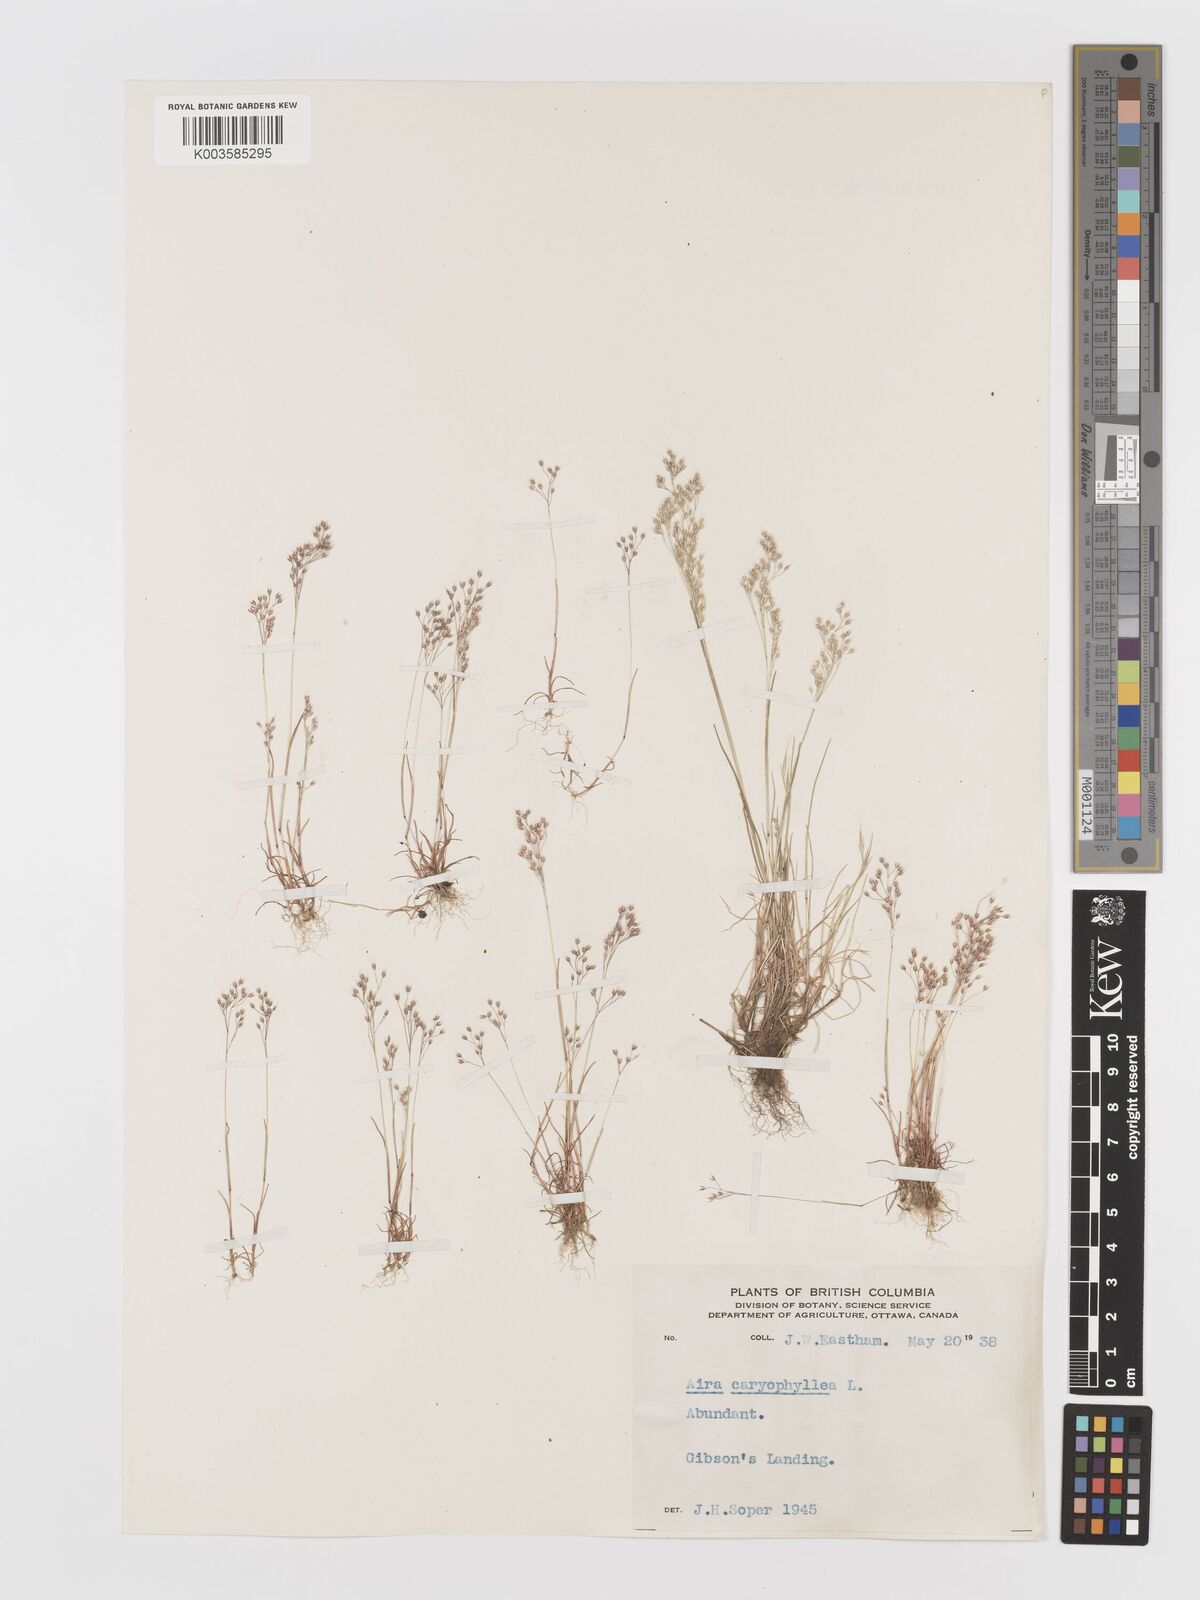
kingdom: Plantae
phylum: Tracheophyta
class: Liliopsida
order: Poales
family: Poaceae
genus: Aira
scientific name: Aira caryophyllea
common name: Silver hairgrass
